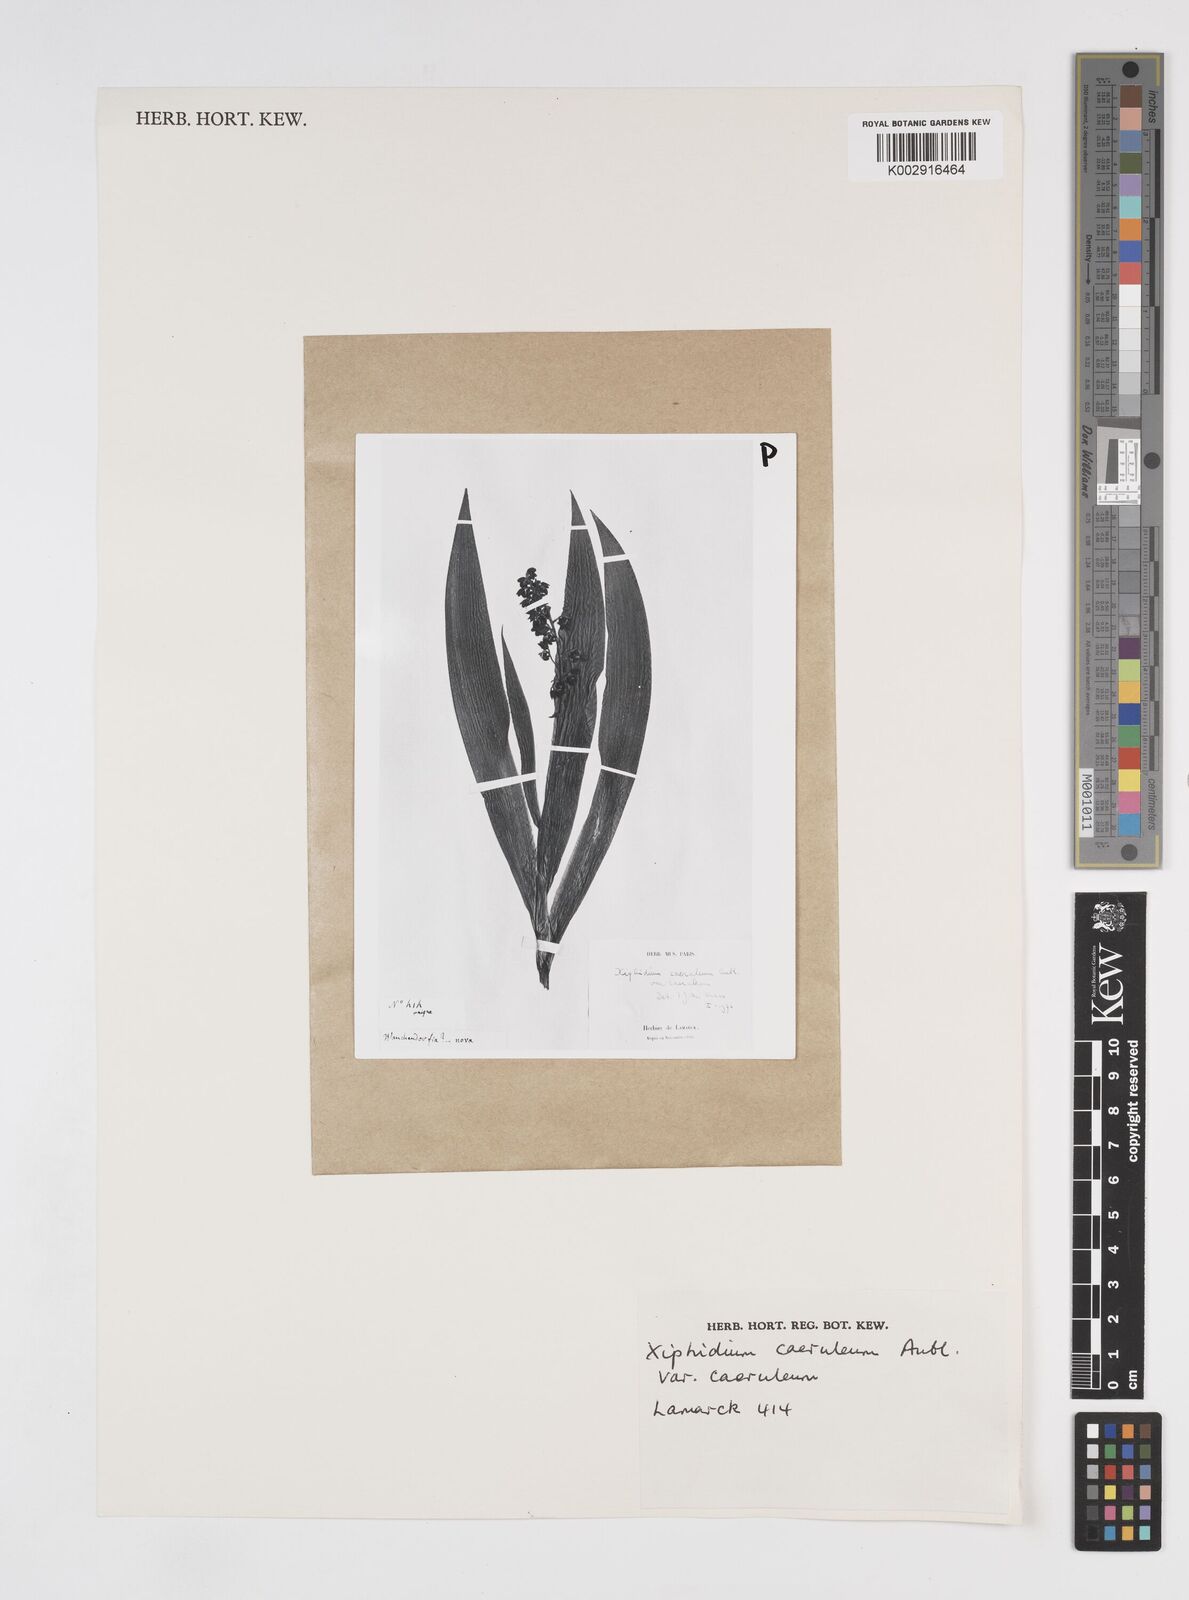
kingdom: Plantae
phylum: Tracheophyta
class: Liliopsida
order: Commelinales
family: Haemodoraceae
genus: Xiphidium
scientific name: Xiphidium caeruleum
